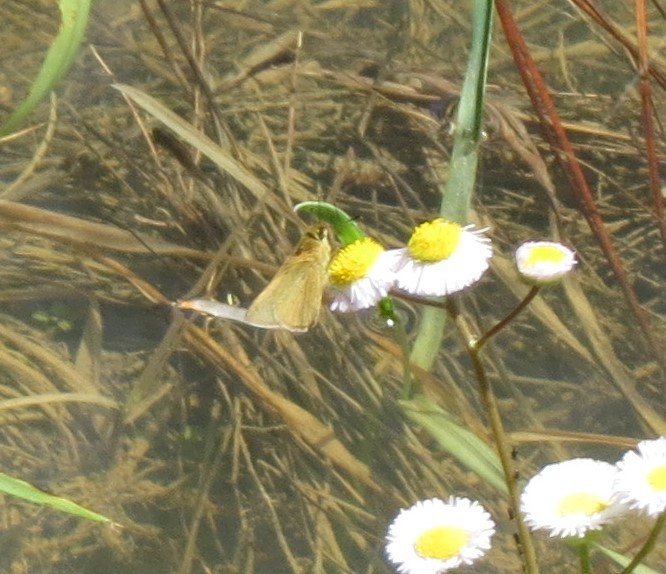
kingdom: Animalia
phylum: Arthropoda
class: Insecta
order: Lepidoptera
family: Hesperiidae
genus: Nastra
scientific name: Nastra lherminier
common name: Swarthy Skipper
